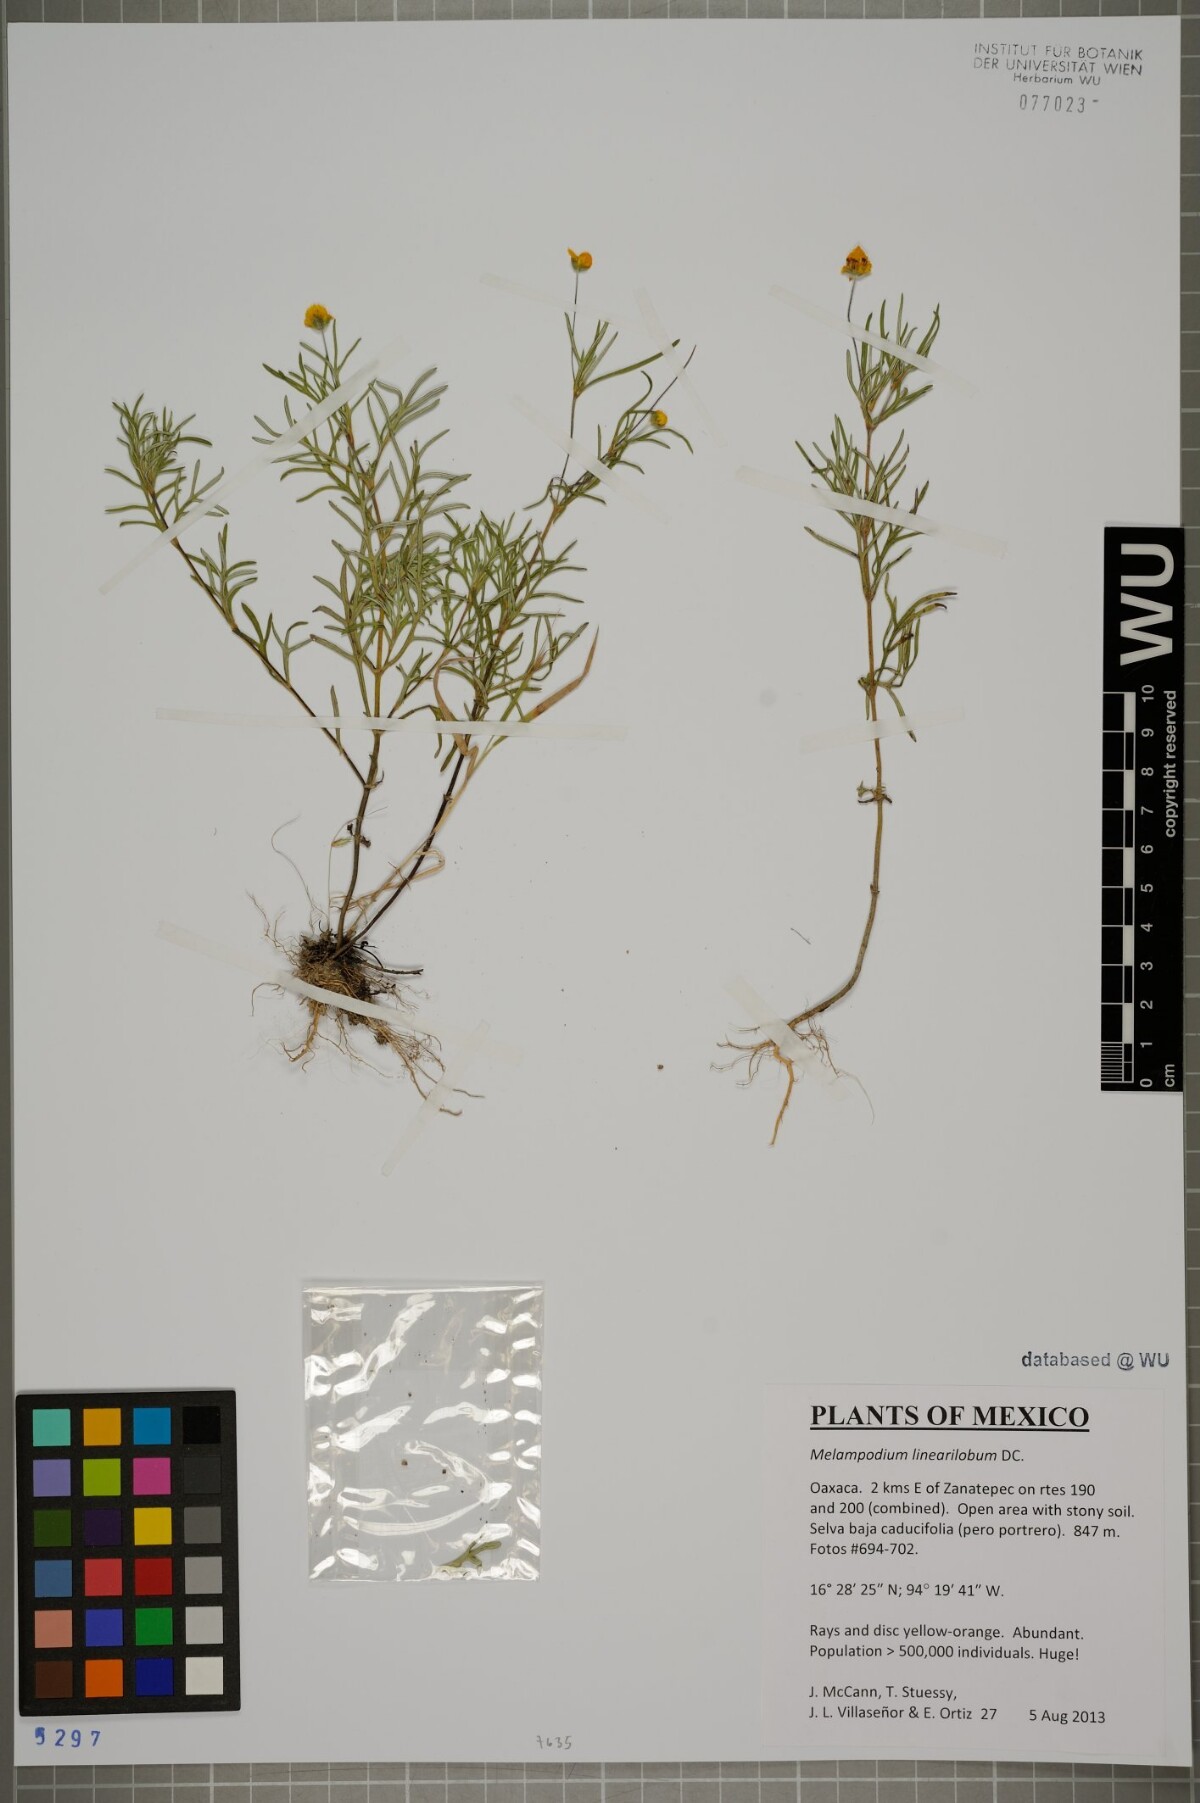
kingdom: Plantae
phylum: Tracheophyta
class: Magnoliopsida
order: Asterales
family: Asteraceae
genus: Melampodium
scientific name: Melampodium linearilobum
